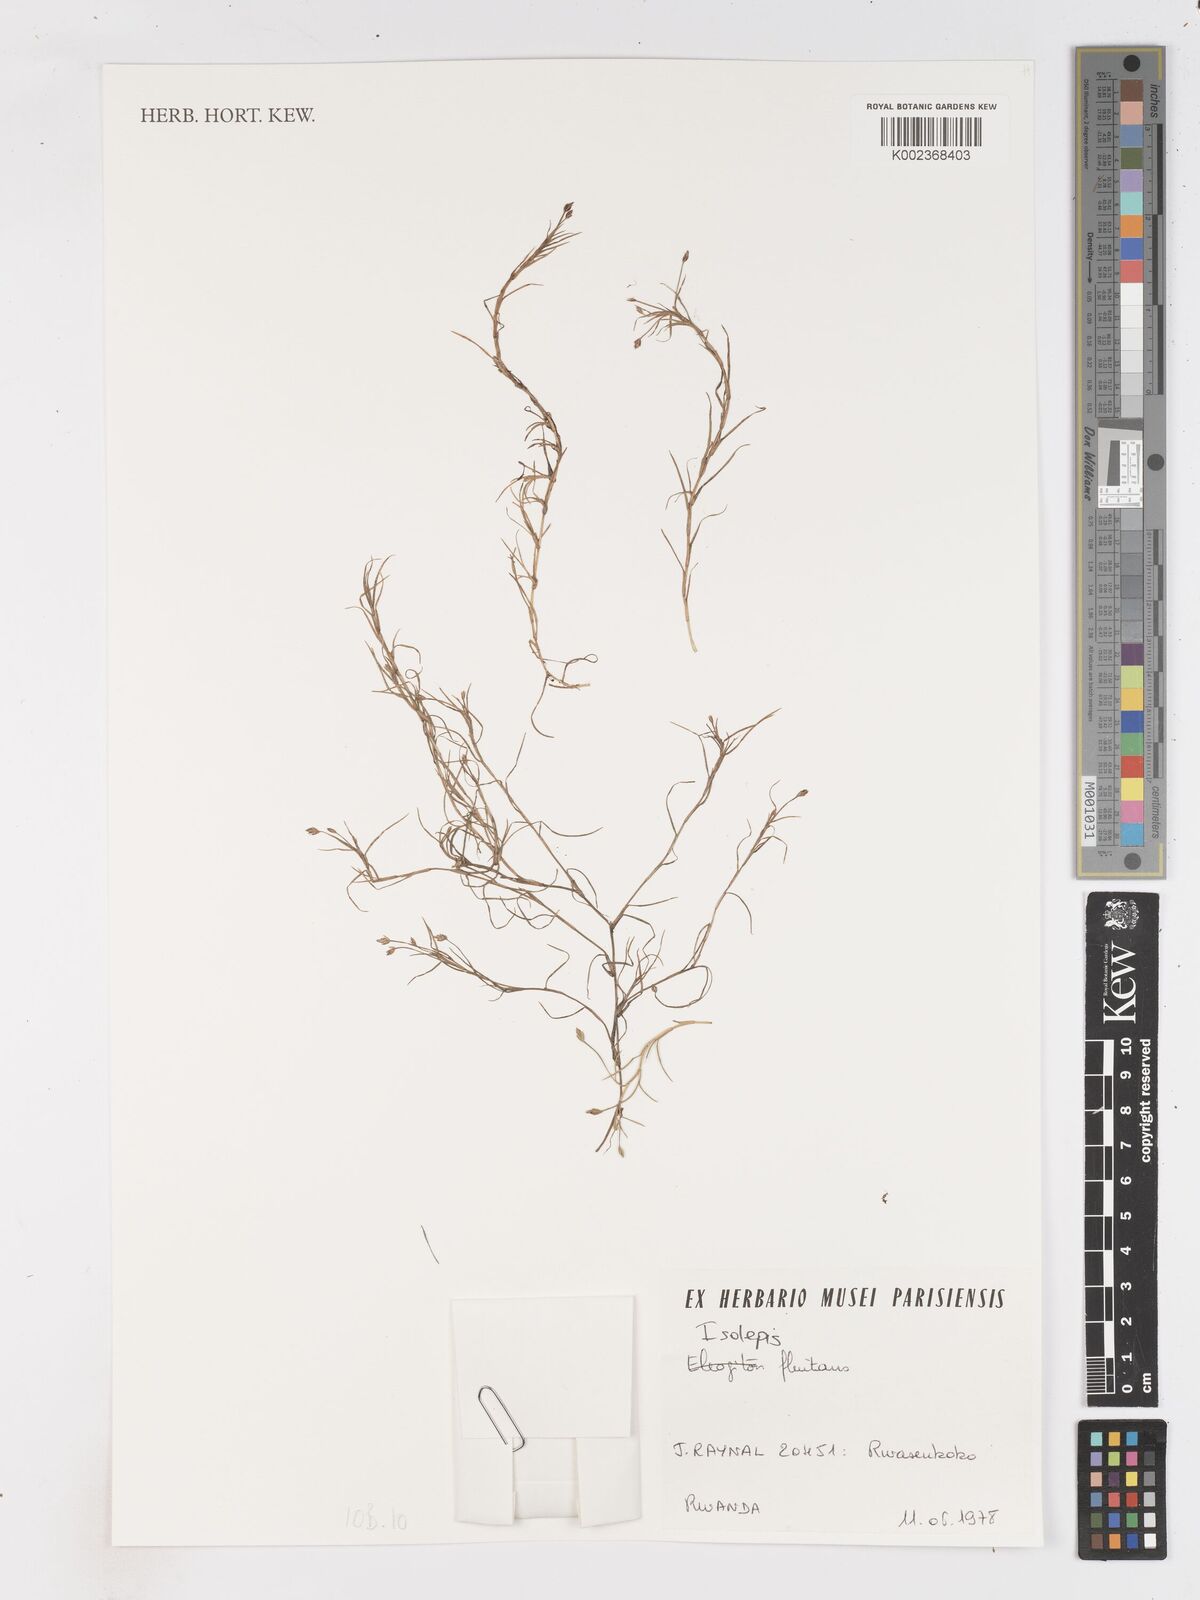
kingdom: Plantae
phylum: Tracheophyta
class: Liliopsida
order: Poales
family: Cyperaceae
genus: Isolepis
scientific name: Isolepis fluitans
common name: Floating club-rush
